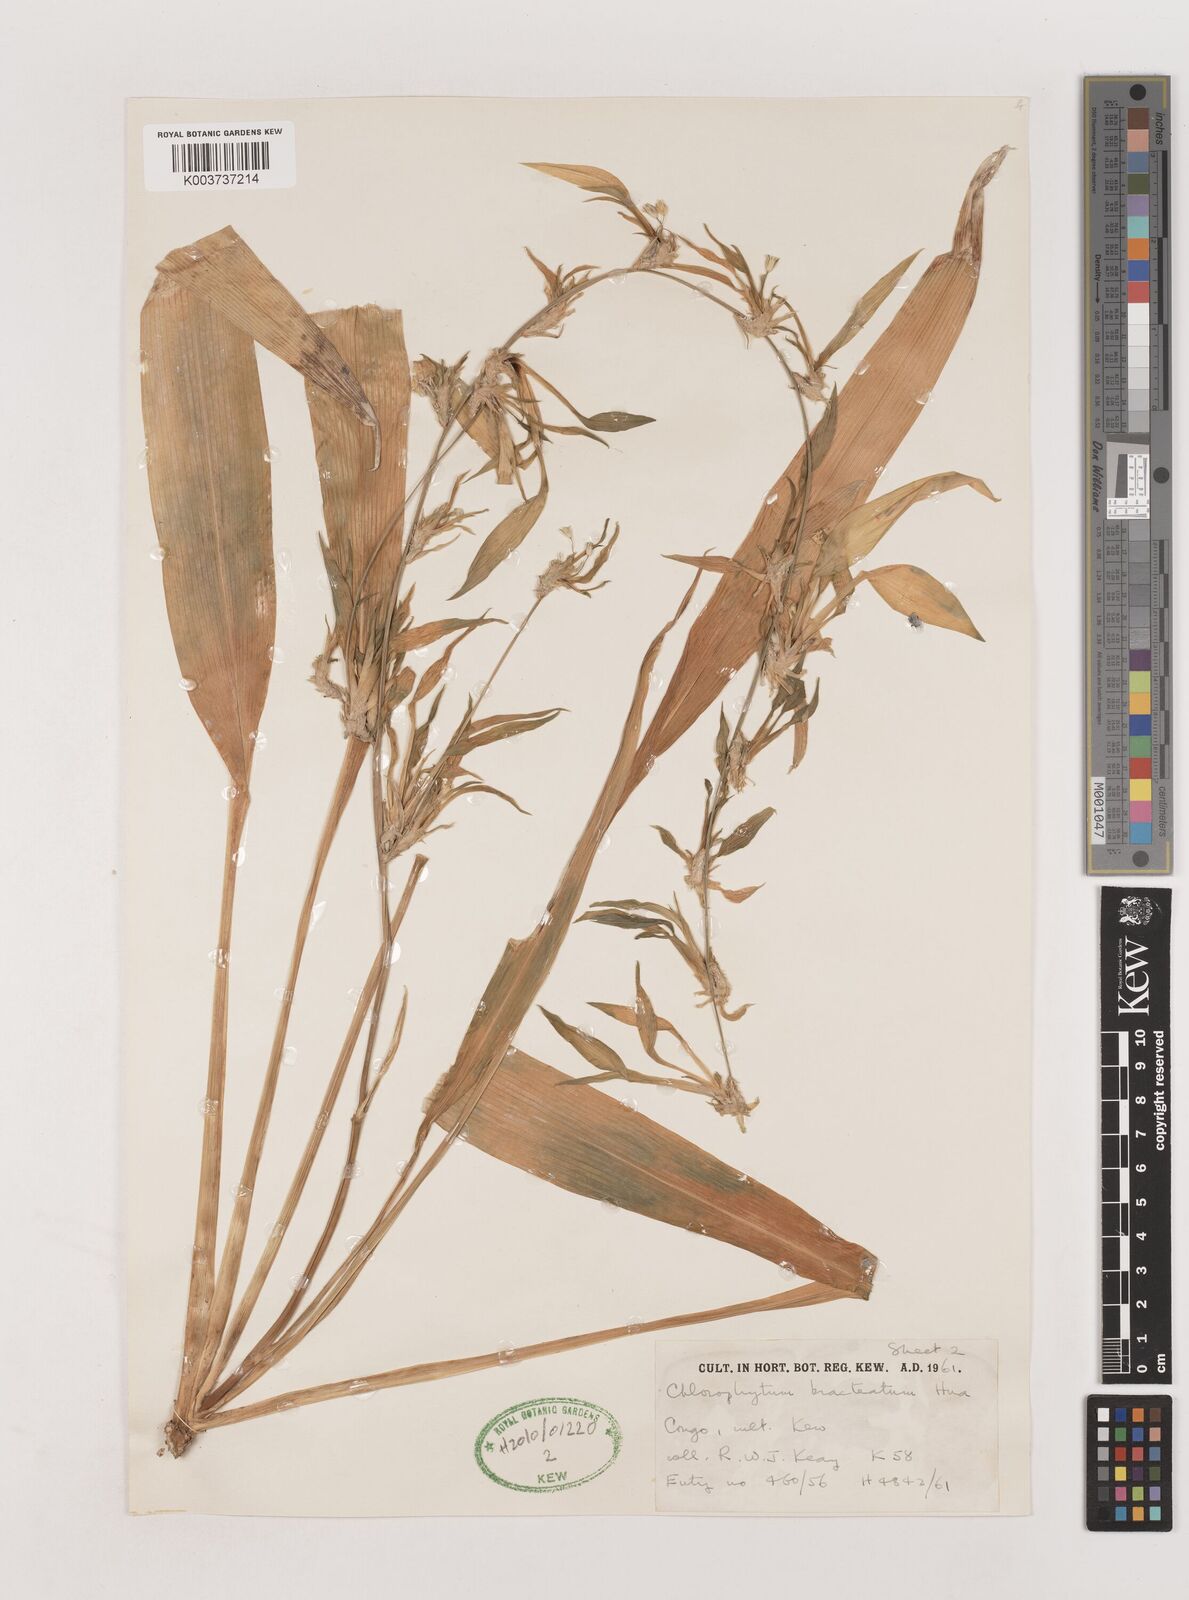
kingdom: Plantae
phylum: Tracheophyta
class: Liliopsida
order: Asparagales
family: Asparagaceae
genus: Chlorophytum
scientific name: Chlorophytum bracteatum
